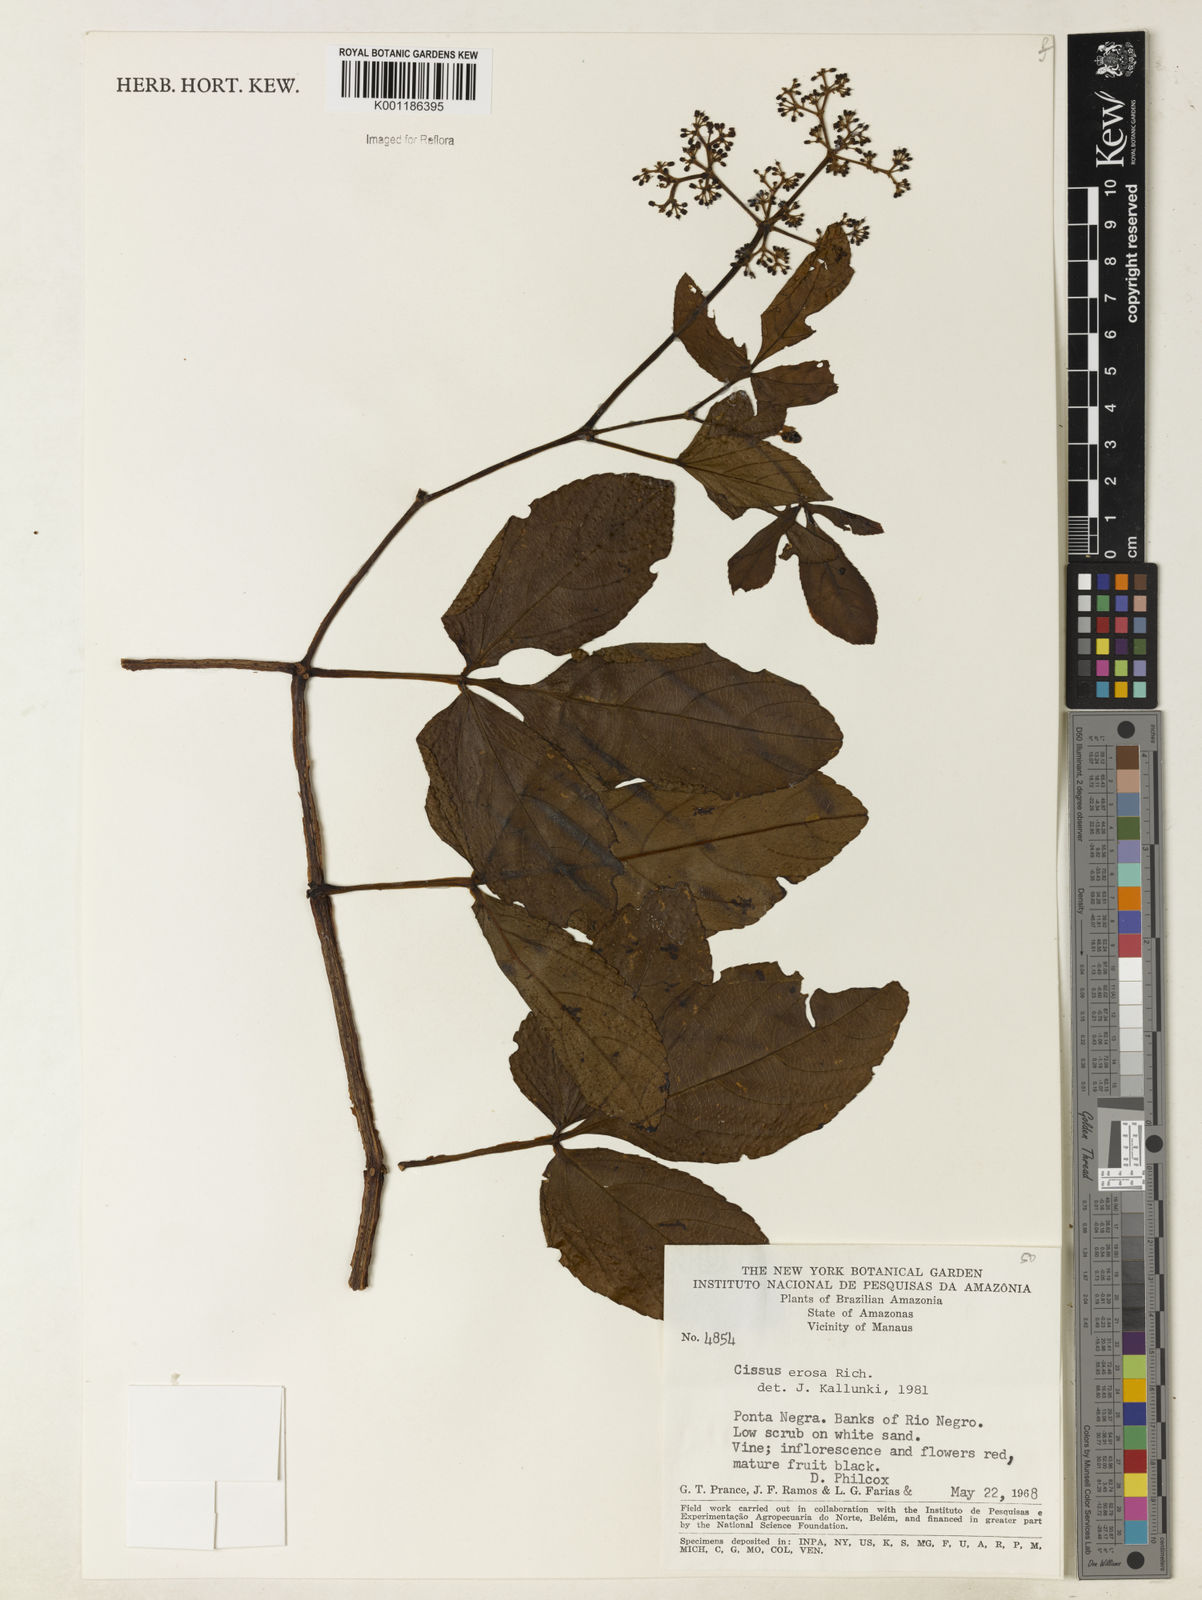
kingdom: Plantae
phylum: Tracheophyta
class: Magnoliopsida
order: Vitales
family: Vitaceae
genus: Cissus
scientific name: Cissus erosa
